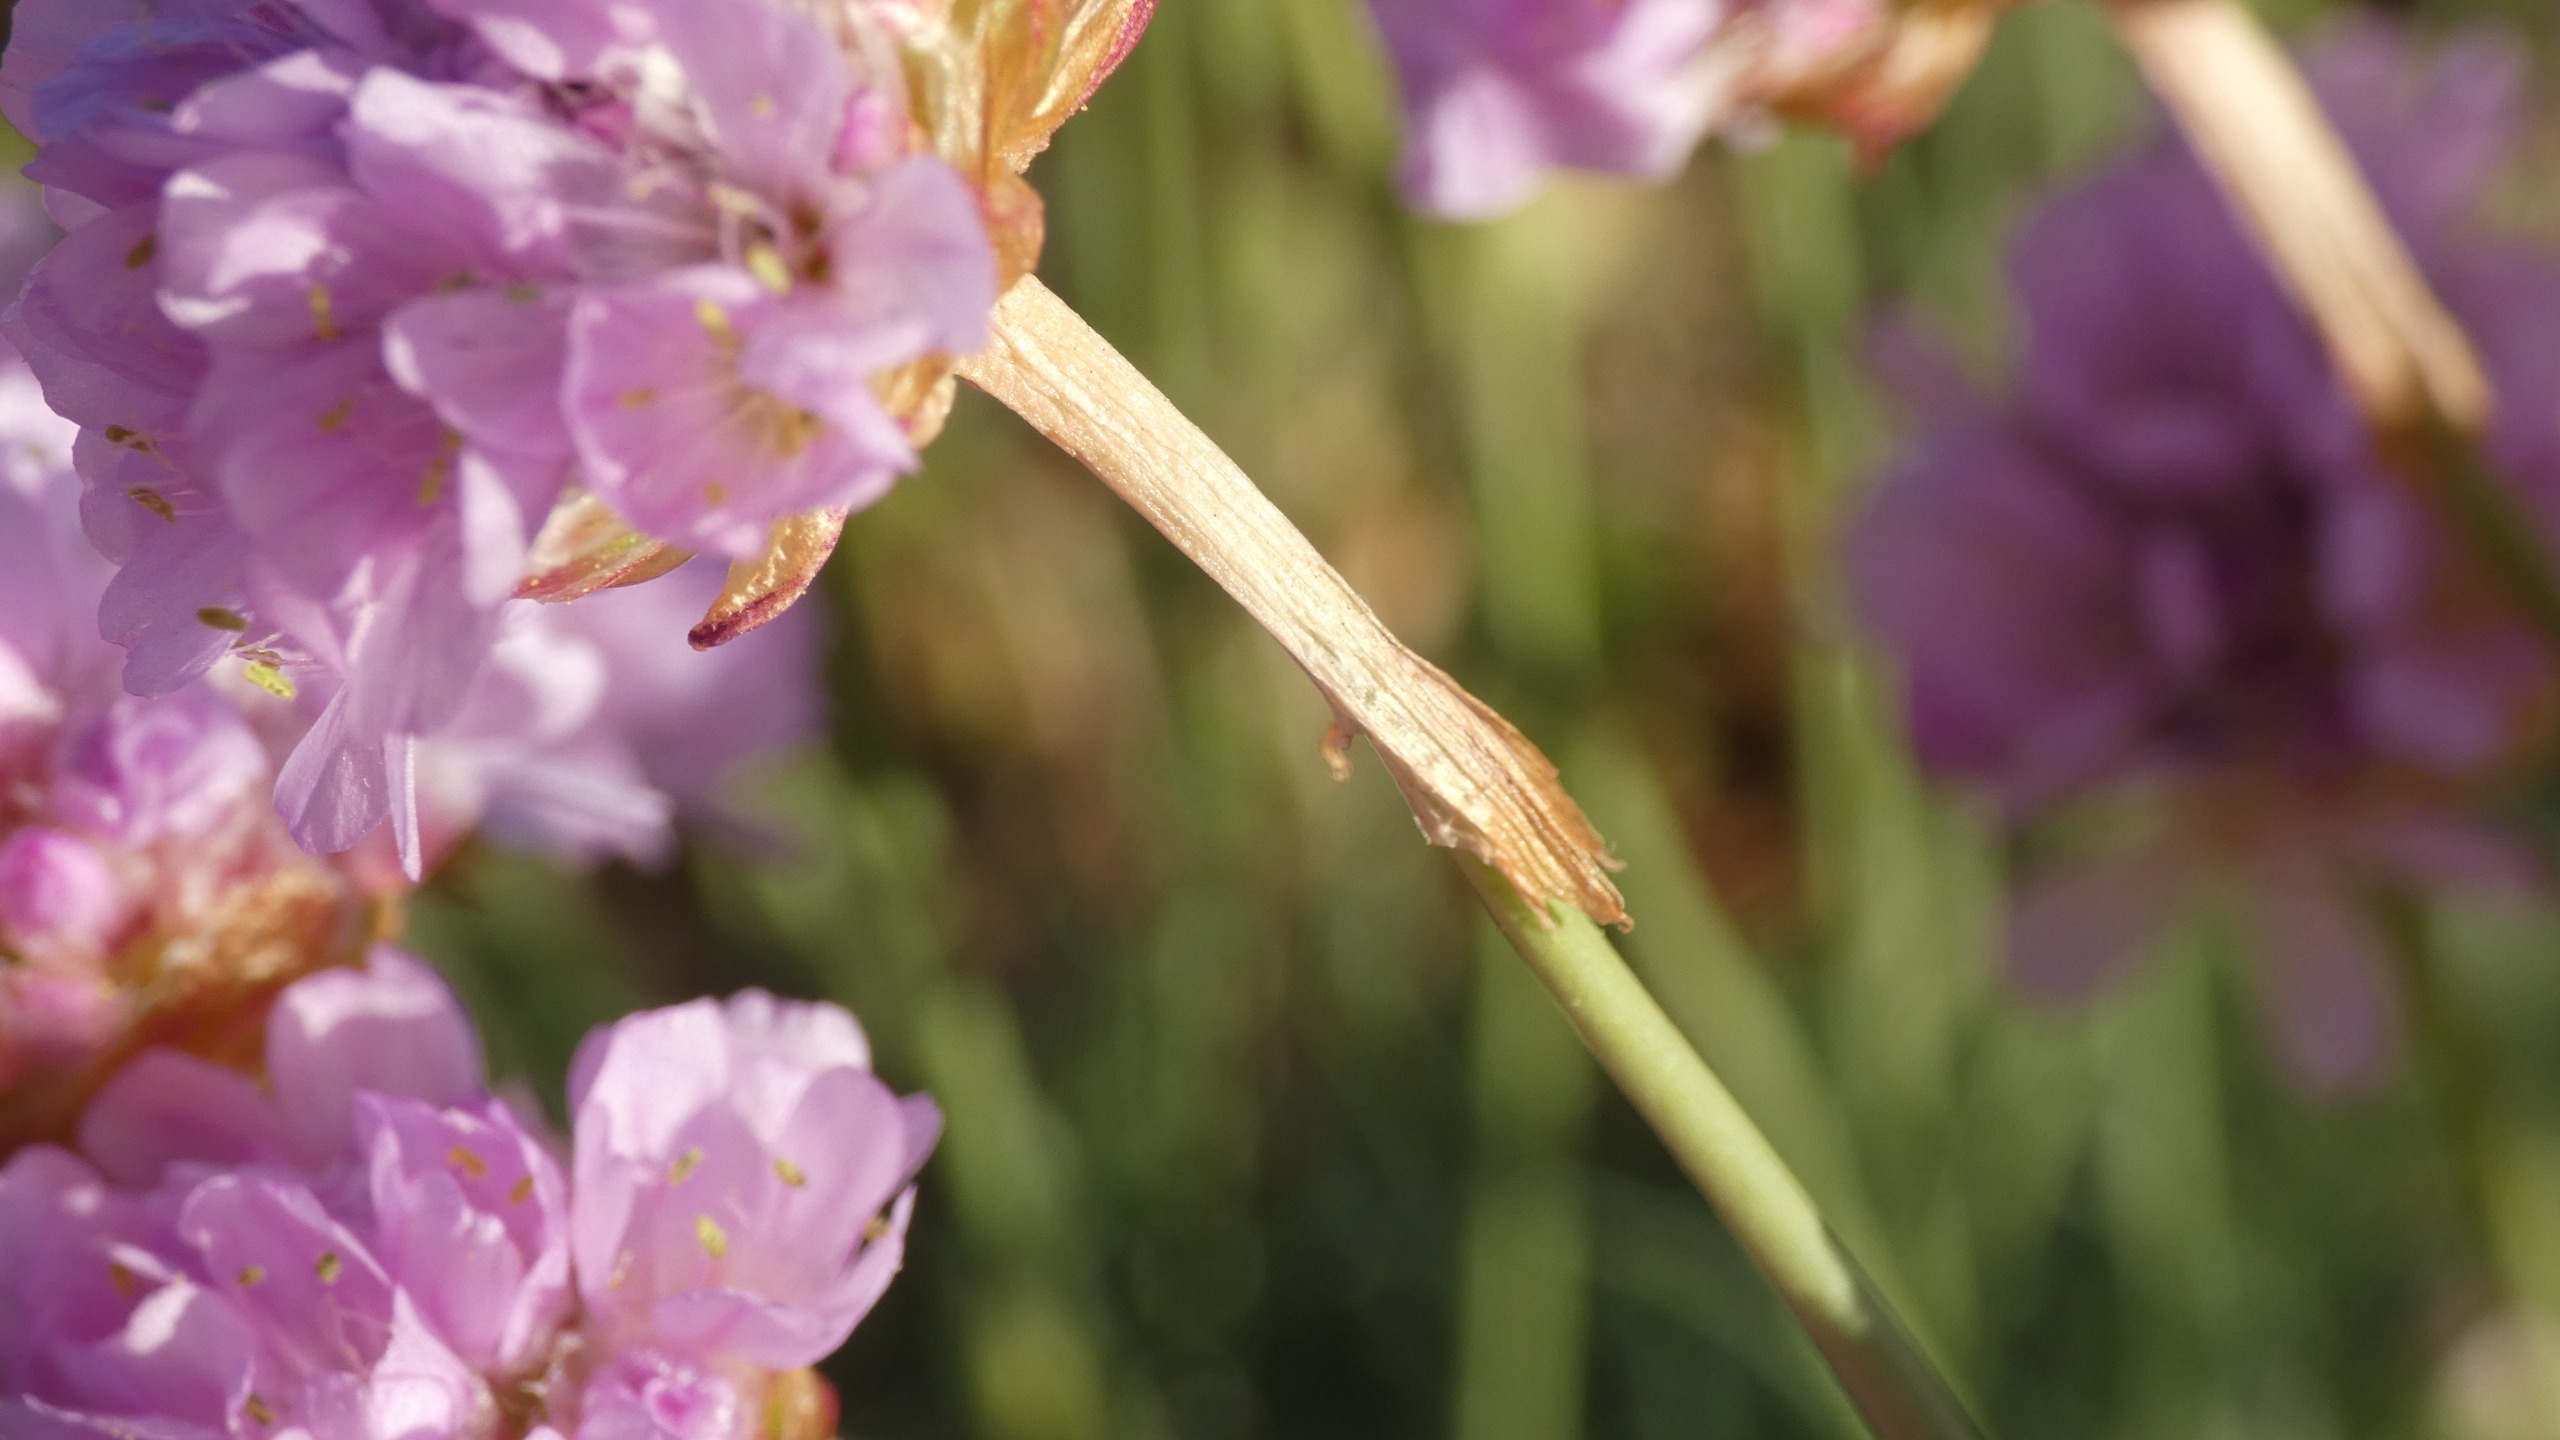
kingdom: Plantae
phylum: Tracheophyta
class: Magnoliopsida
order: Caryophyllales
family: Plumbaginaceae
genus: Armeria
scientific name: Armeria maritima
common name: Engelskgræs
